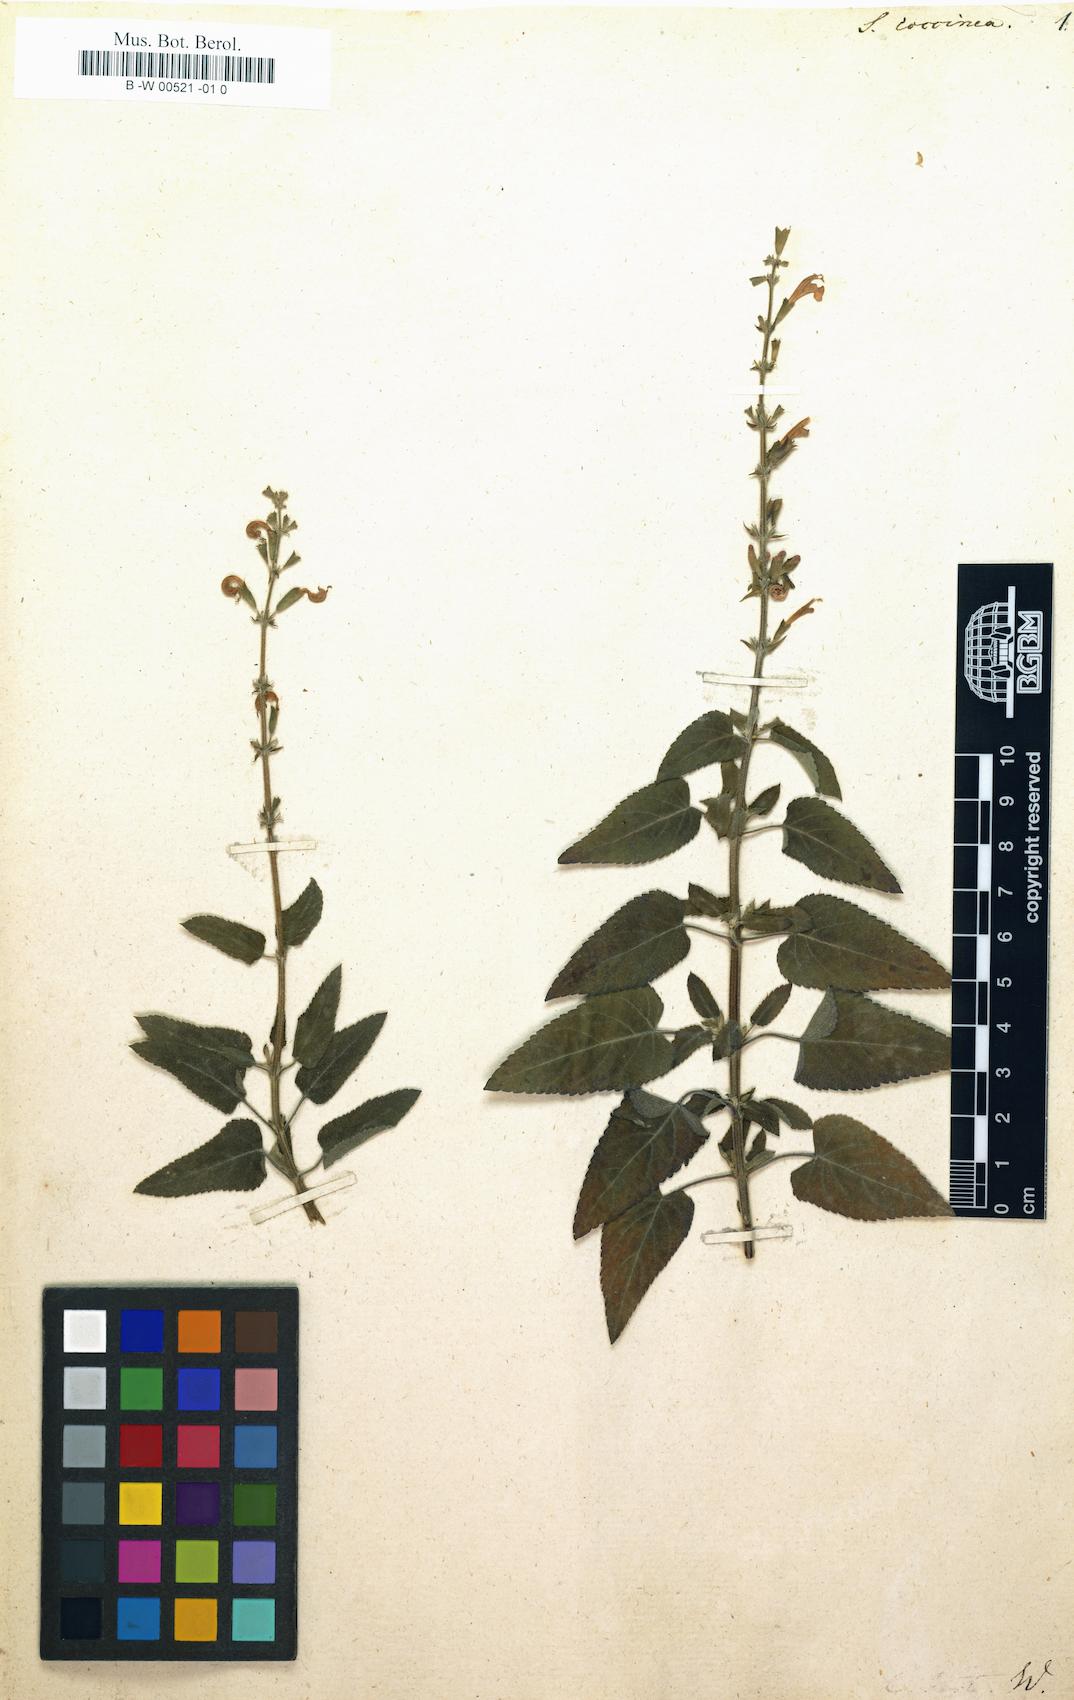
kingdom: Plantae
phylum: Tracheophyta
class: Magnoliopsida
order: Lamiales
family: Lamiaceae
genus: Salvia
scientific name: Salvia coccinea
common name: Blood sage
